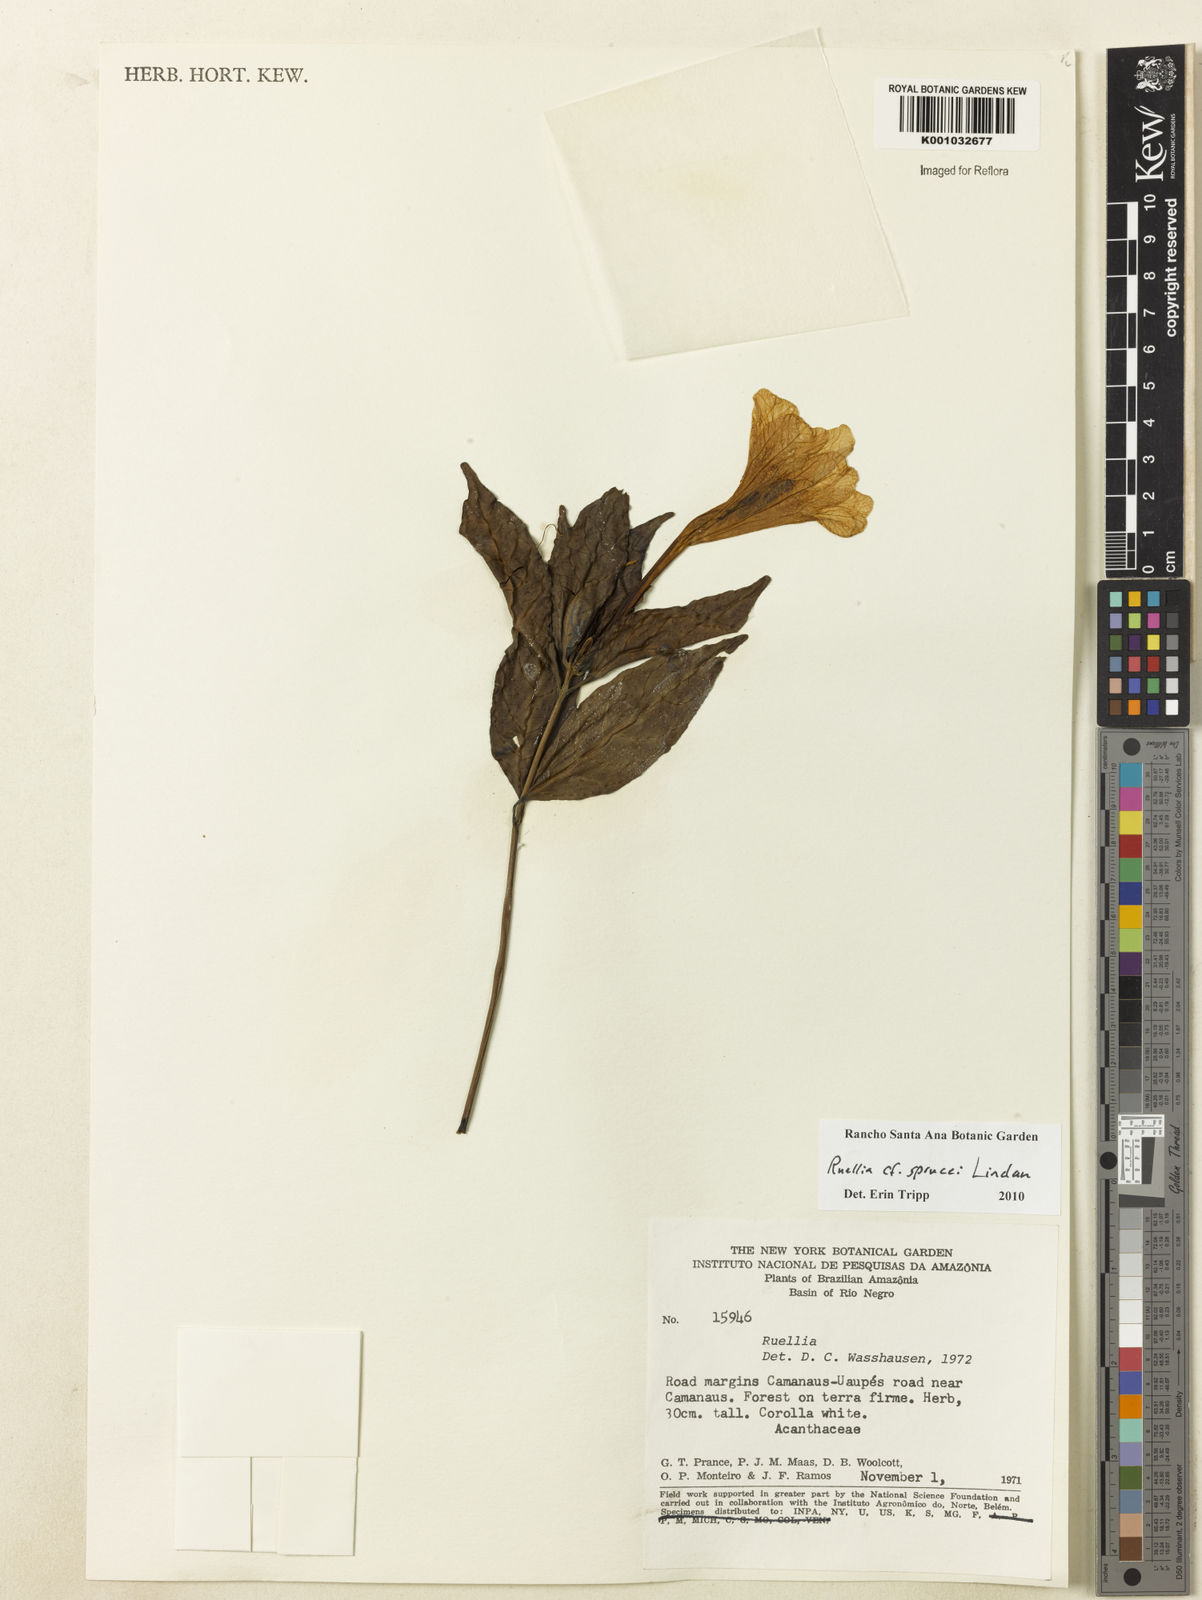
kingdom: Plantae
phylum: Tracheophyta
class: Magnoliopsida
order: Lamiales
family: Acanthaceae
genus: Ruellia
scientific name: Ruellia sprucei
